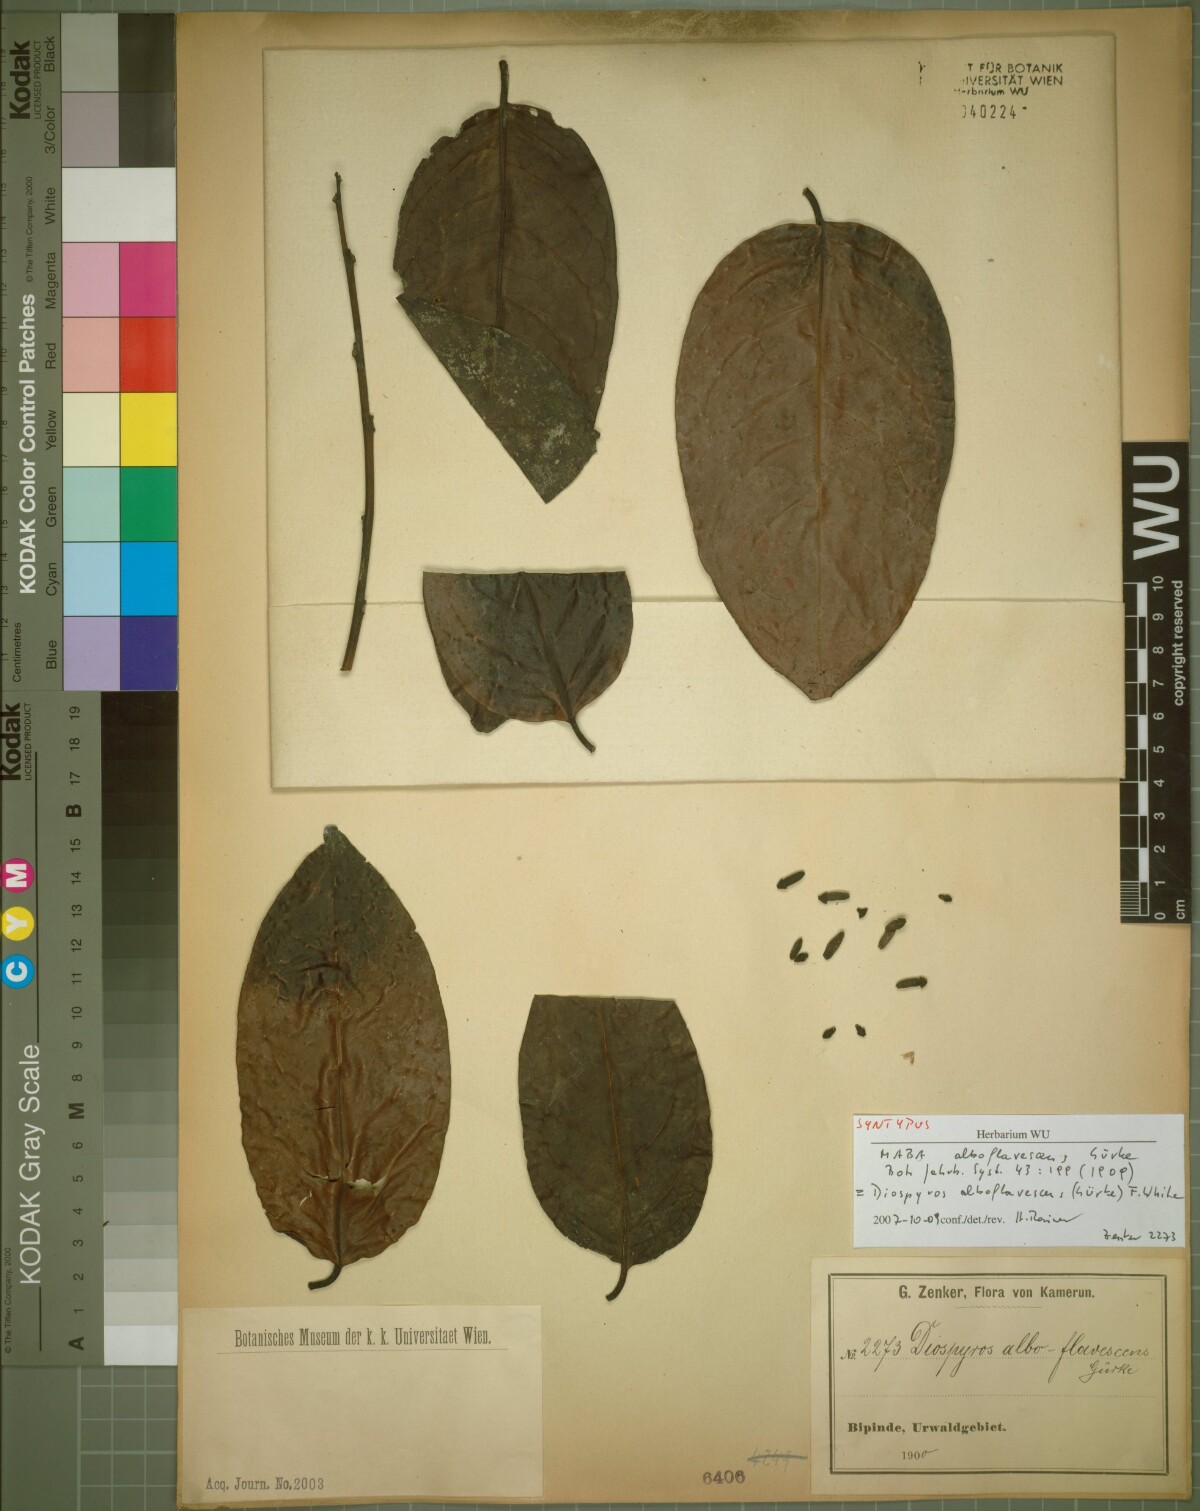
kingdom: Plantae
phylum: Tracheophyta
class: Magnoliopsida
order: Ericales
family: Ebenaceae
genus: Diospyros
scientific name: Diospyros alboflavescens
